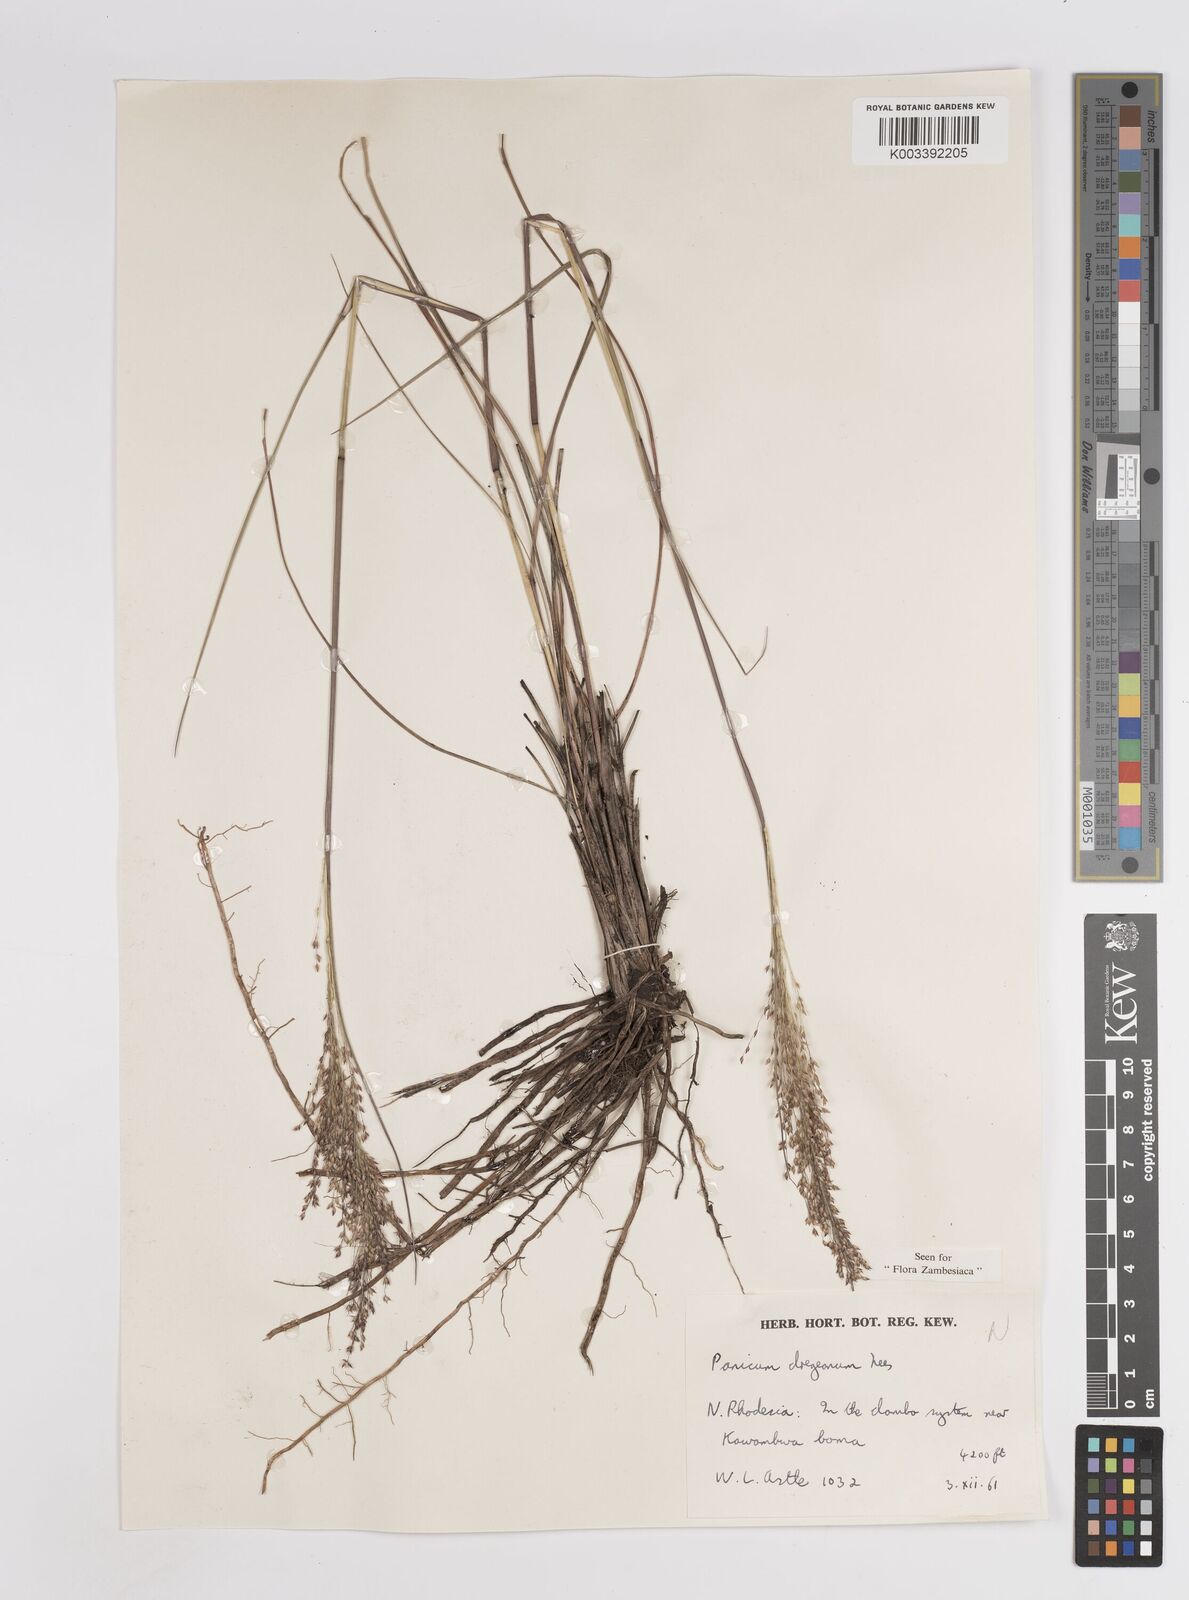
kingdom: Plantae
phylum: Tracheophyta
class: Liliopsida
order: Poales
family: Poaceae
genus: Panicum
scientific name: Panicum dregeanum
